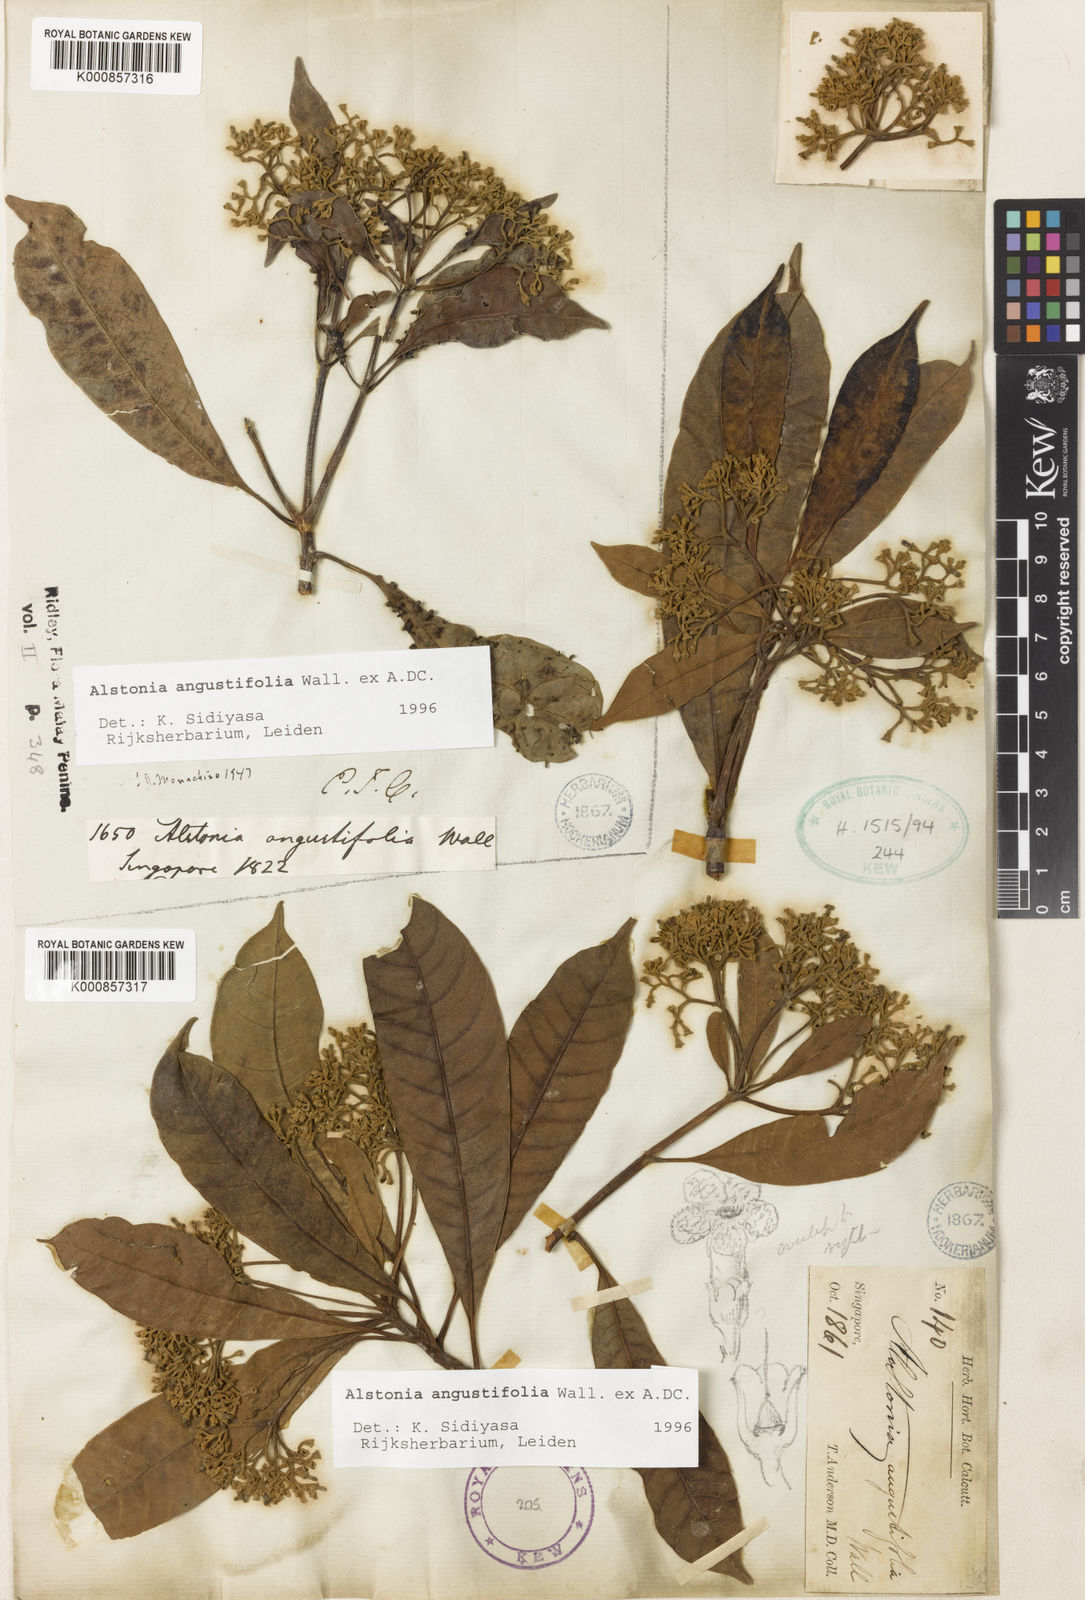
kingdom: Plantae
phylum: Tracheophyta
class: Magnoliopsida
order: Gentianales
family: Apocynaceae
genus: Alstonia
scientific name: Alstonia angustifolia
